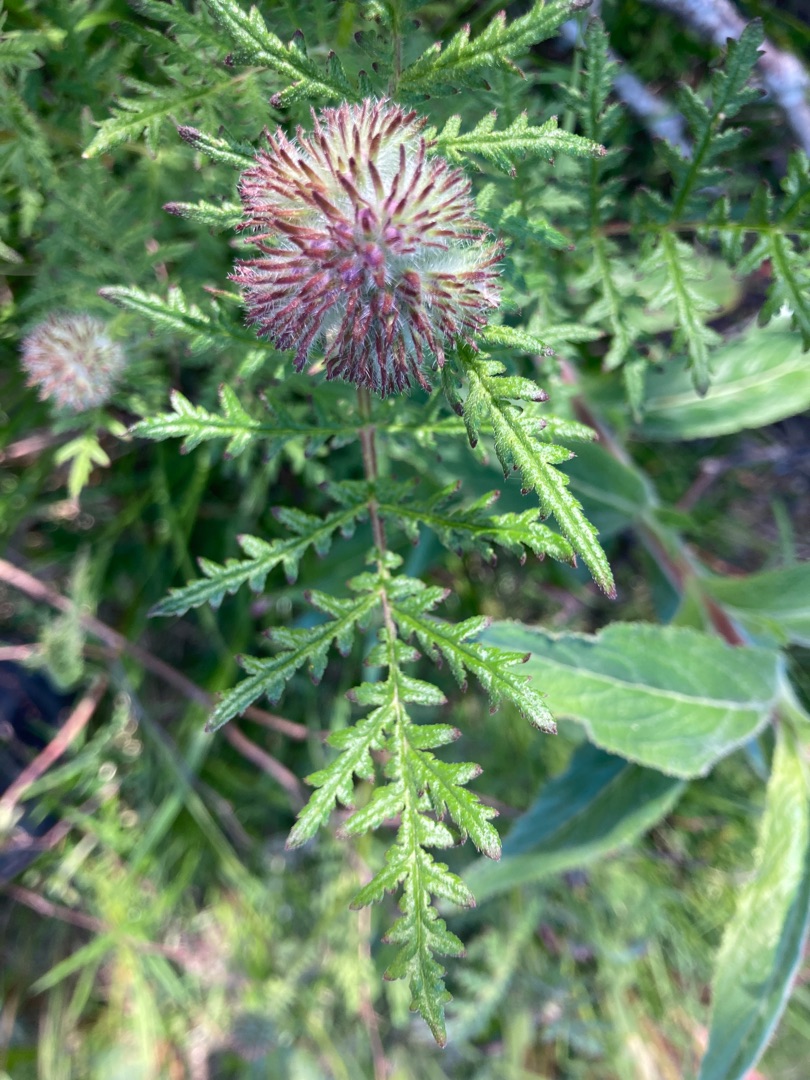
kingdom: Plantae
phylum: Tracheophyta
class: Magnoliopsida
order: Boraginales
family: Hydrophyllaceae
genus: Phacelia
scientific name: Phacelia tanacetifolia
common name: Honningurt
